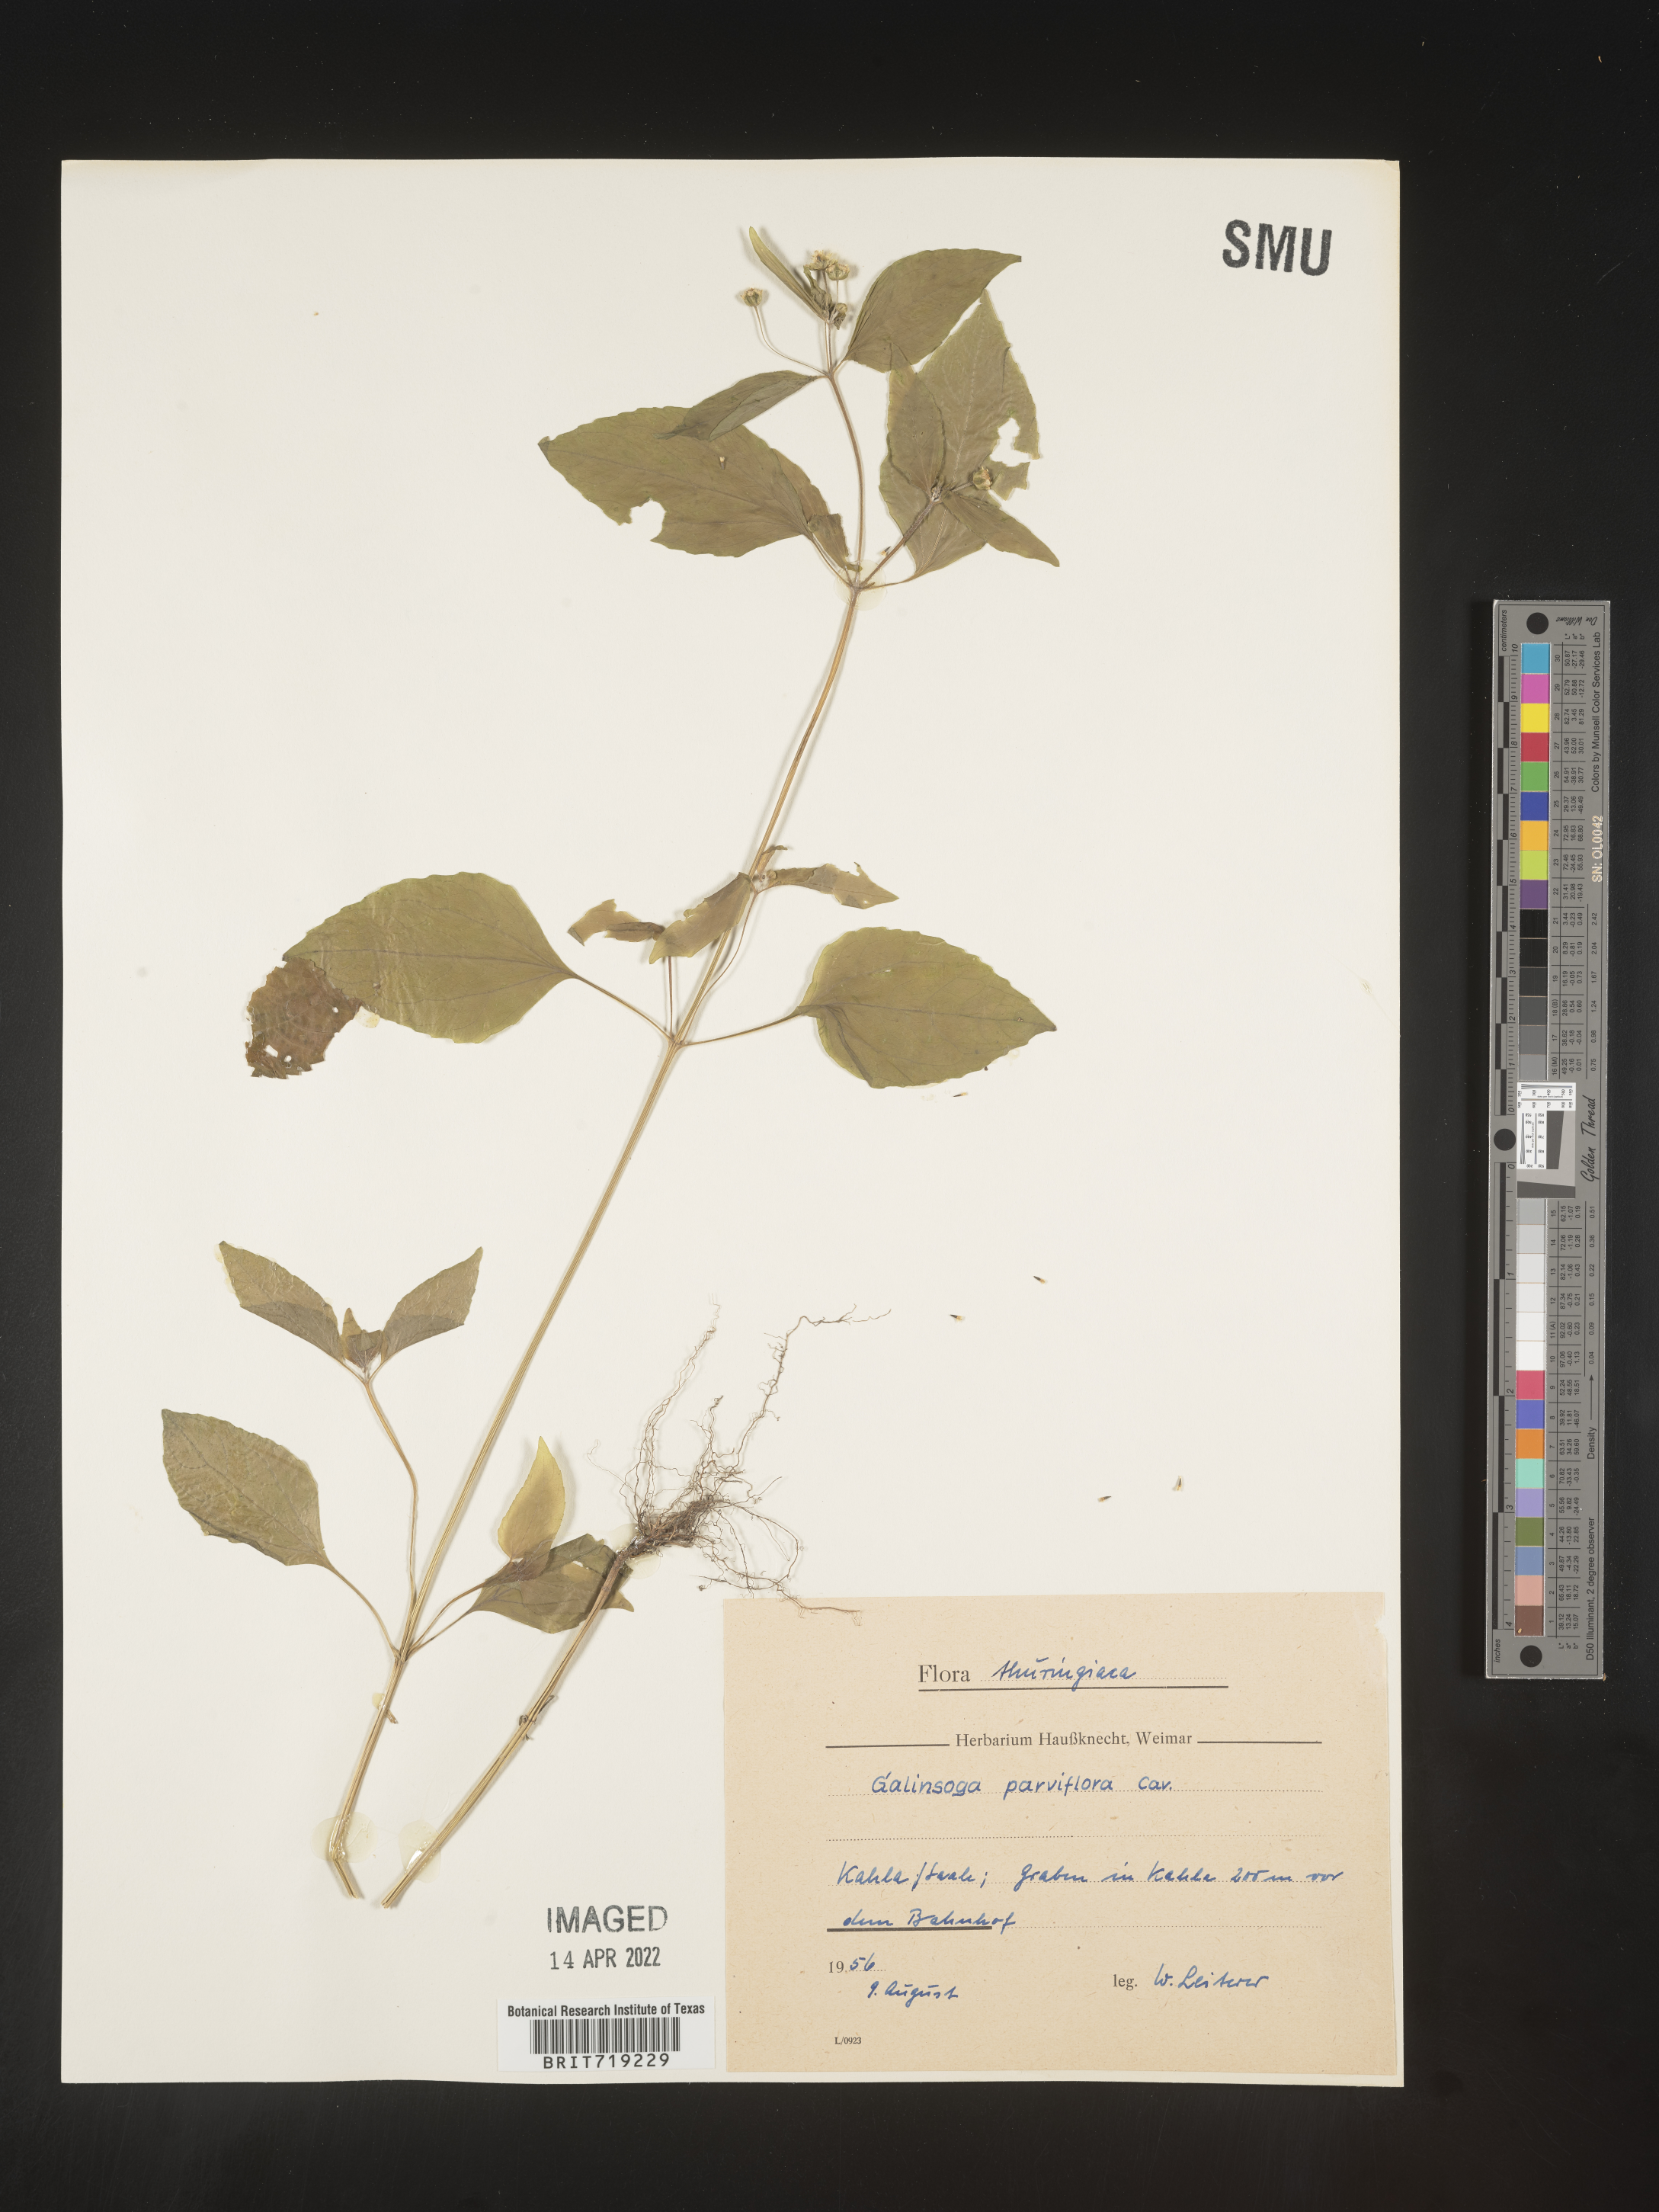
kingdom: Plantae
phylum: Tracheophyta
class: Magnoliopsida
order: Asterales
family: Asteraceae
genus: Galinsoga
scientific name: Galinsoga
